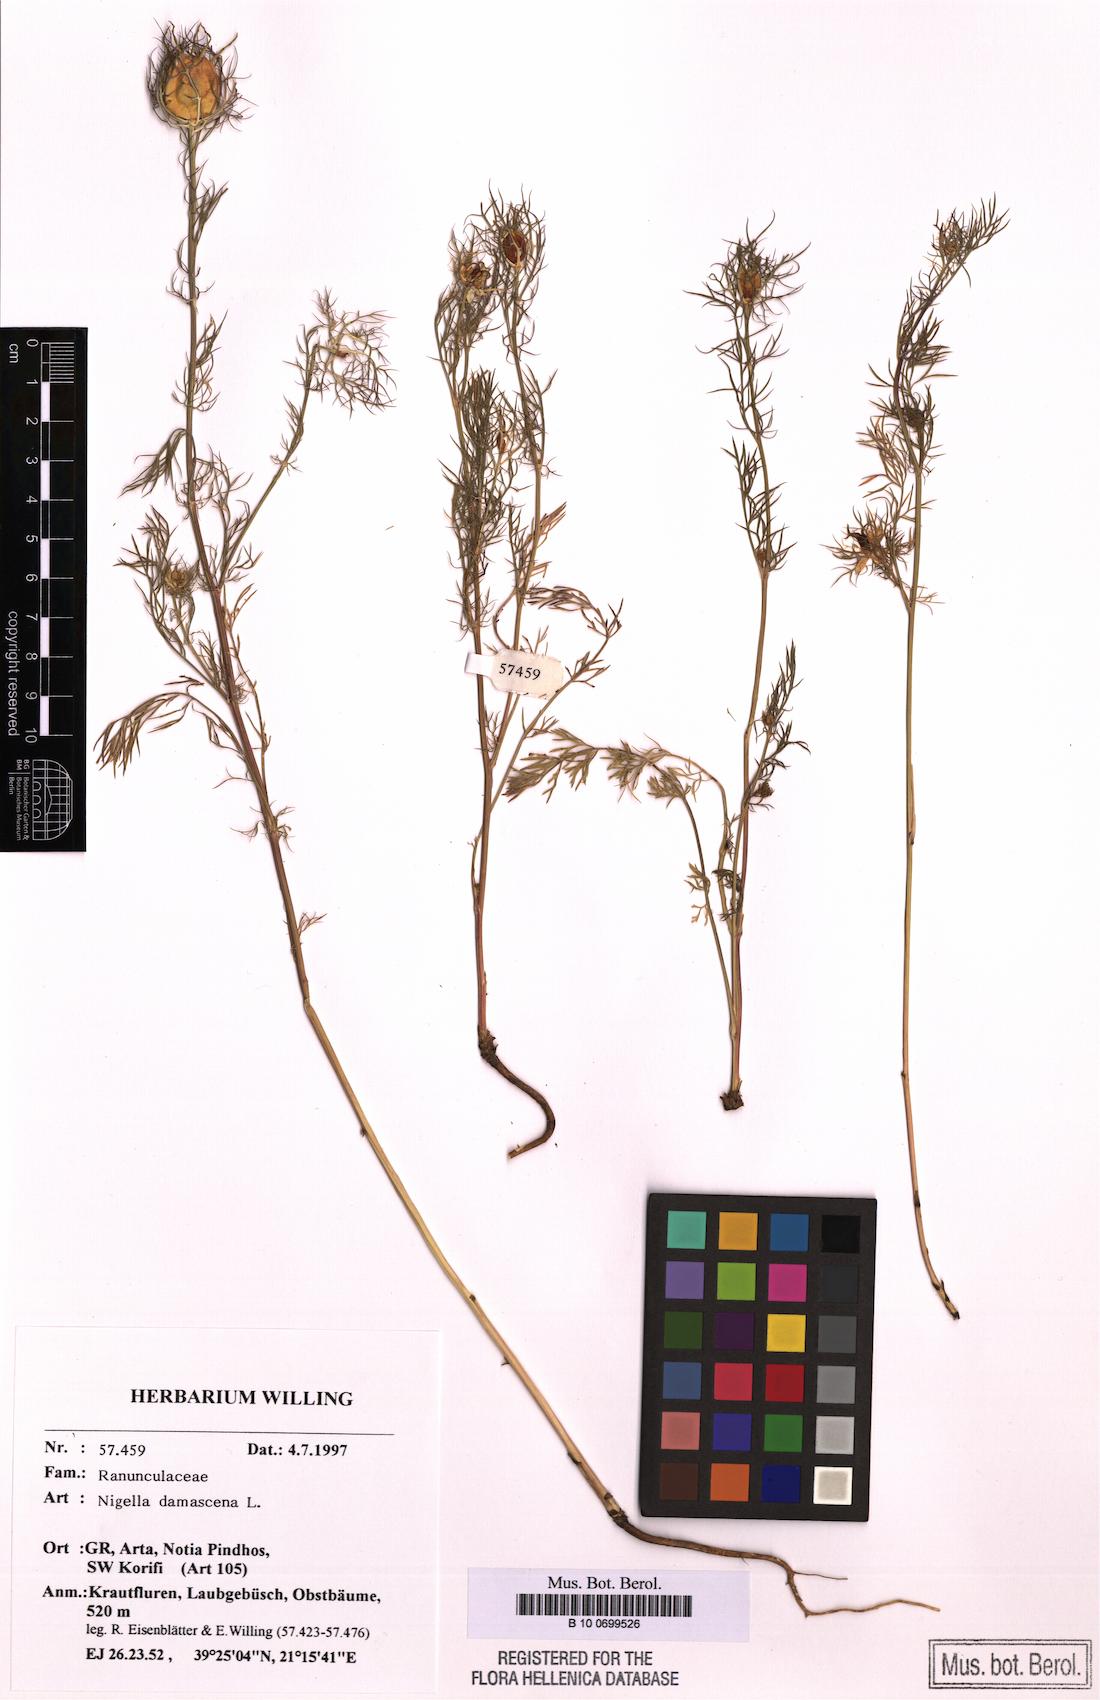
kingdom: Plantae
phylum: Tracheophyta
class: Magnoliopsida
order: Ranunculales
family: Ranunculaceae
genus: Nigella
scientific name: Nigella damascena
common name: Love-in-a-mist
